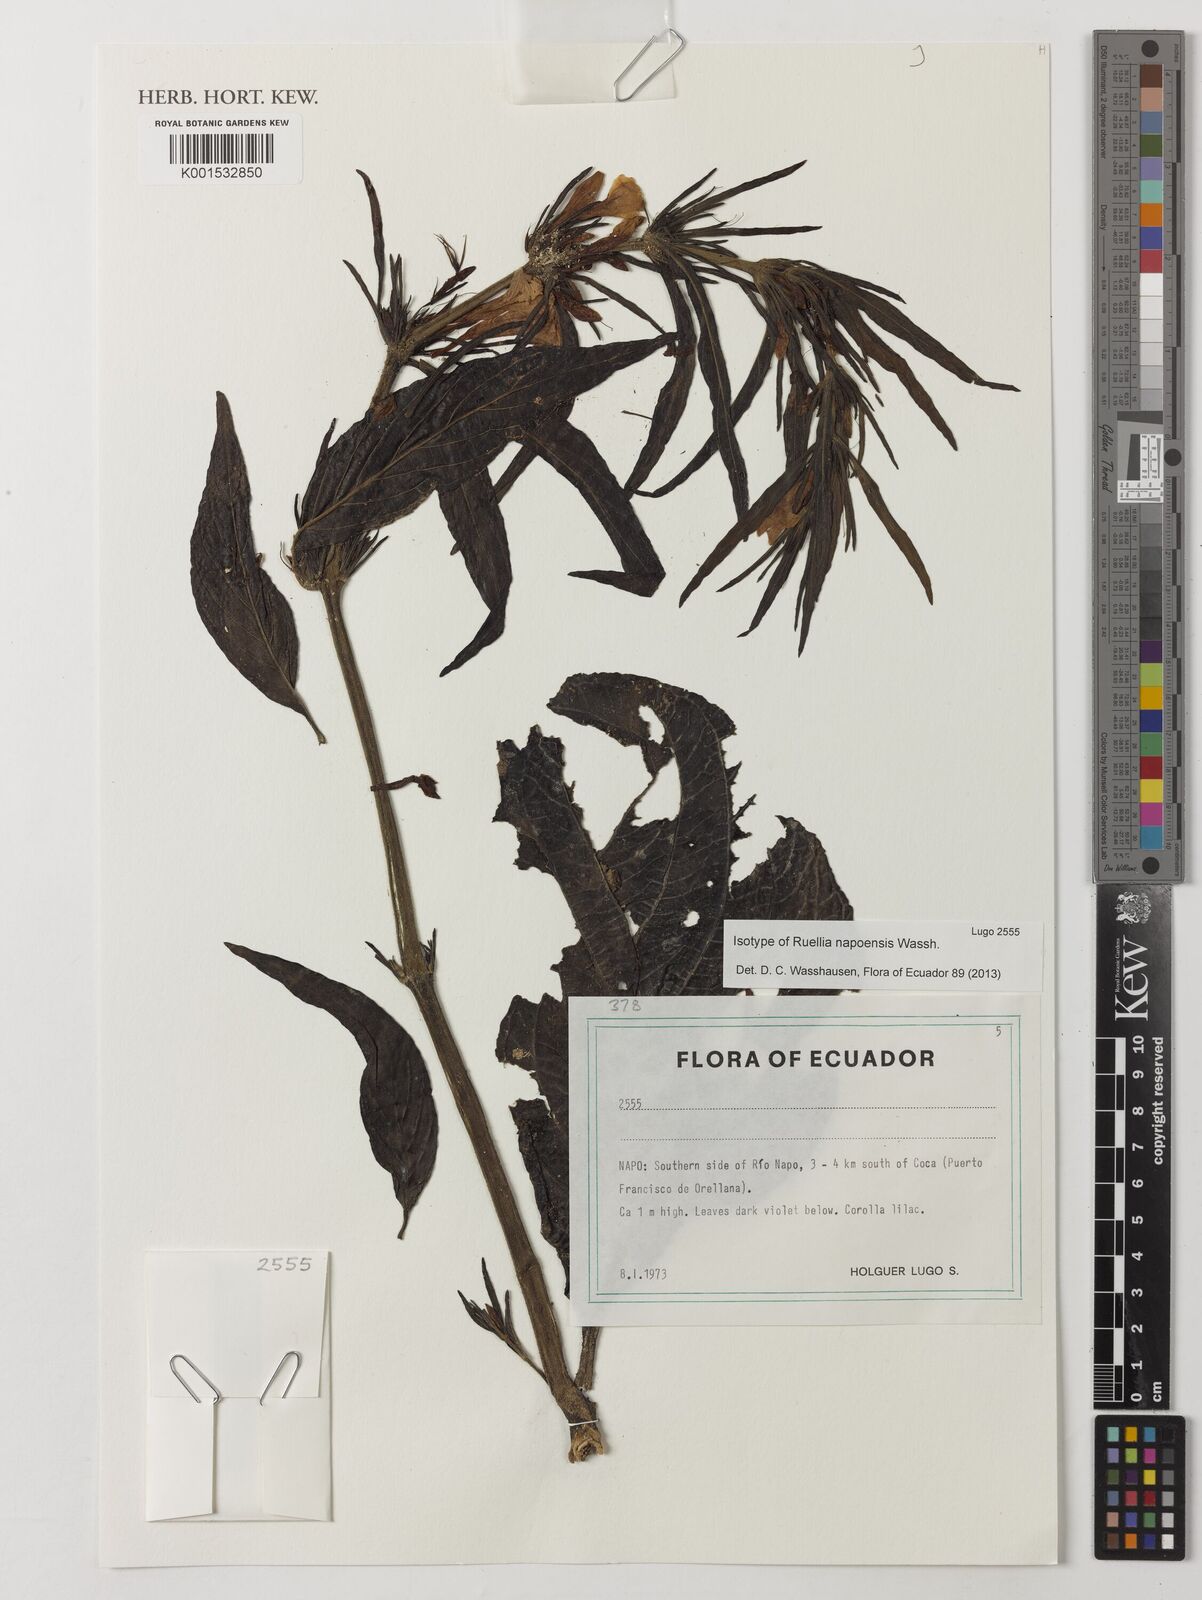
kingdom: Plantae
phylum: Tracheophyta
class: Magnoliopsida
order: Lamiales
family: Acanthaceae
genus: Ruellia
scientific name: Ruellia napoensis
